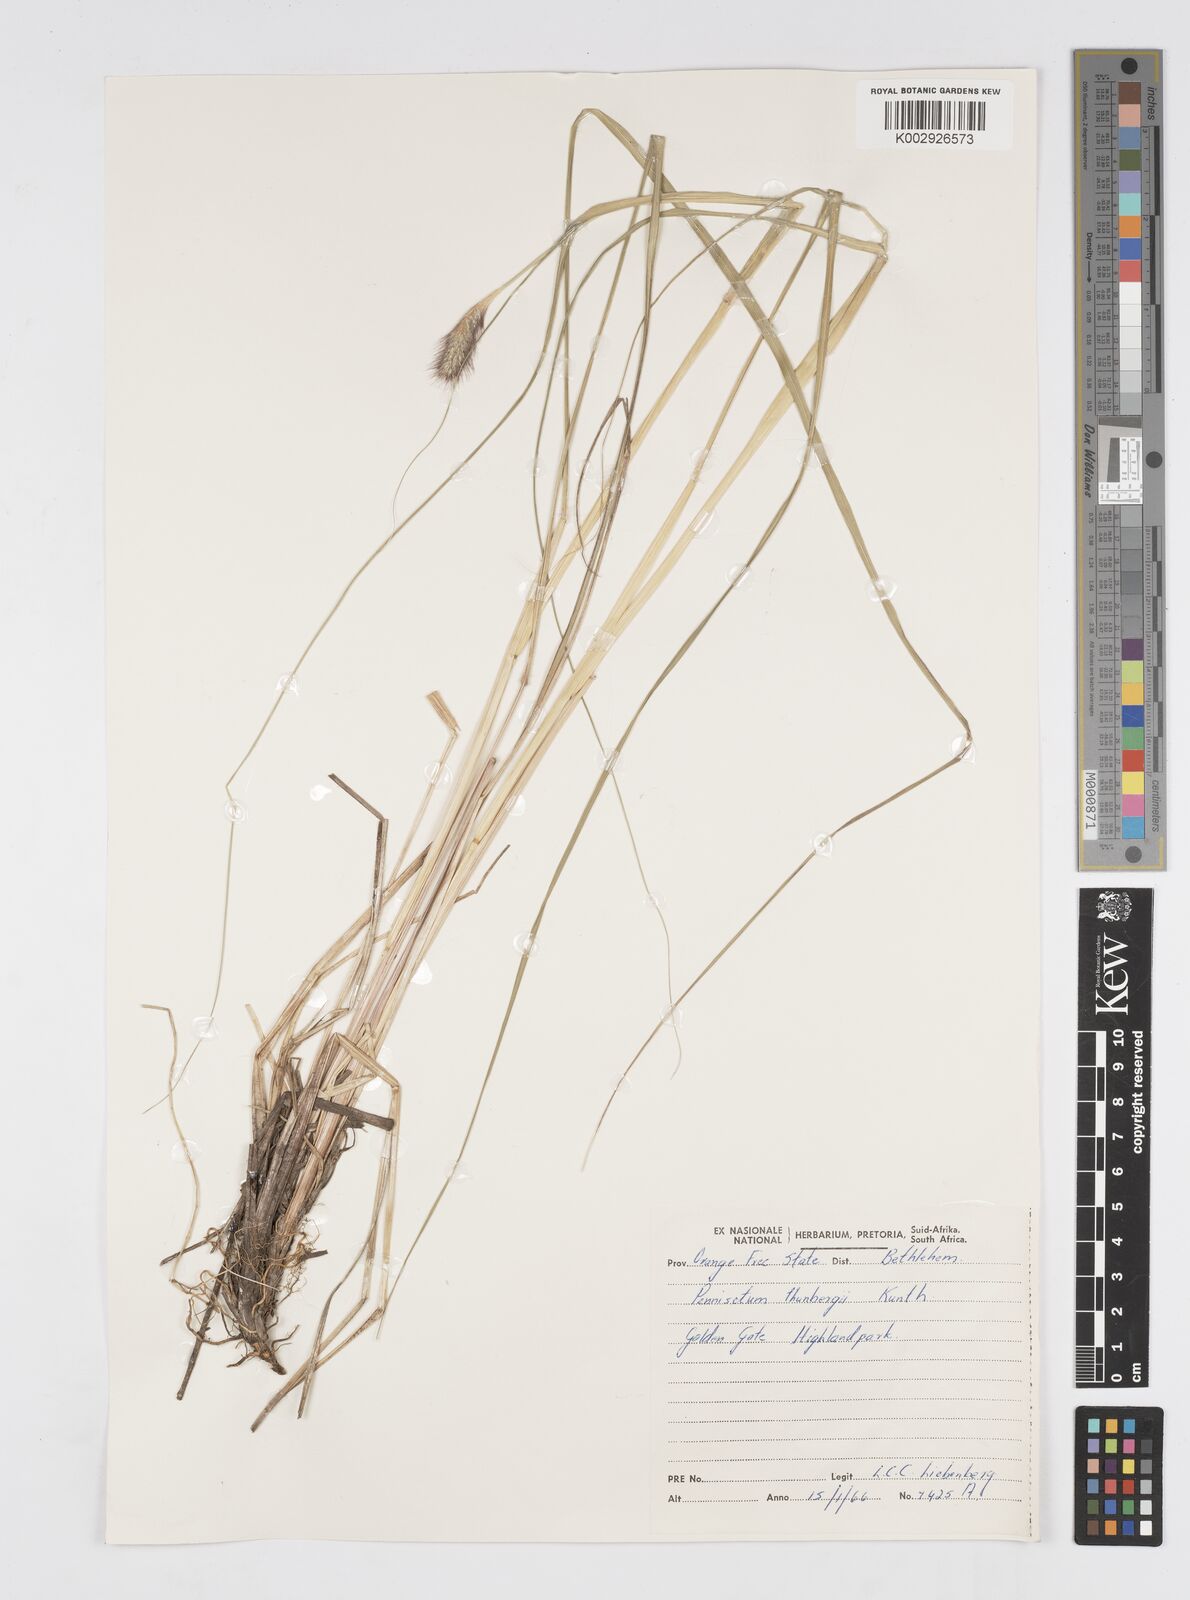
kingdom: Plantae
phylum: Tracheophyta
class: Liliopsida
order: Poales
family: Poaceae
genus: Cenchrus
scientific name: Cenchrus geniculatus
